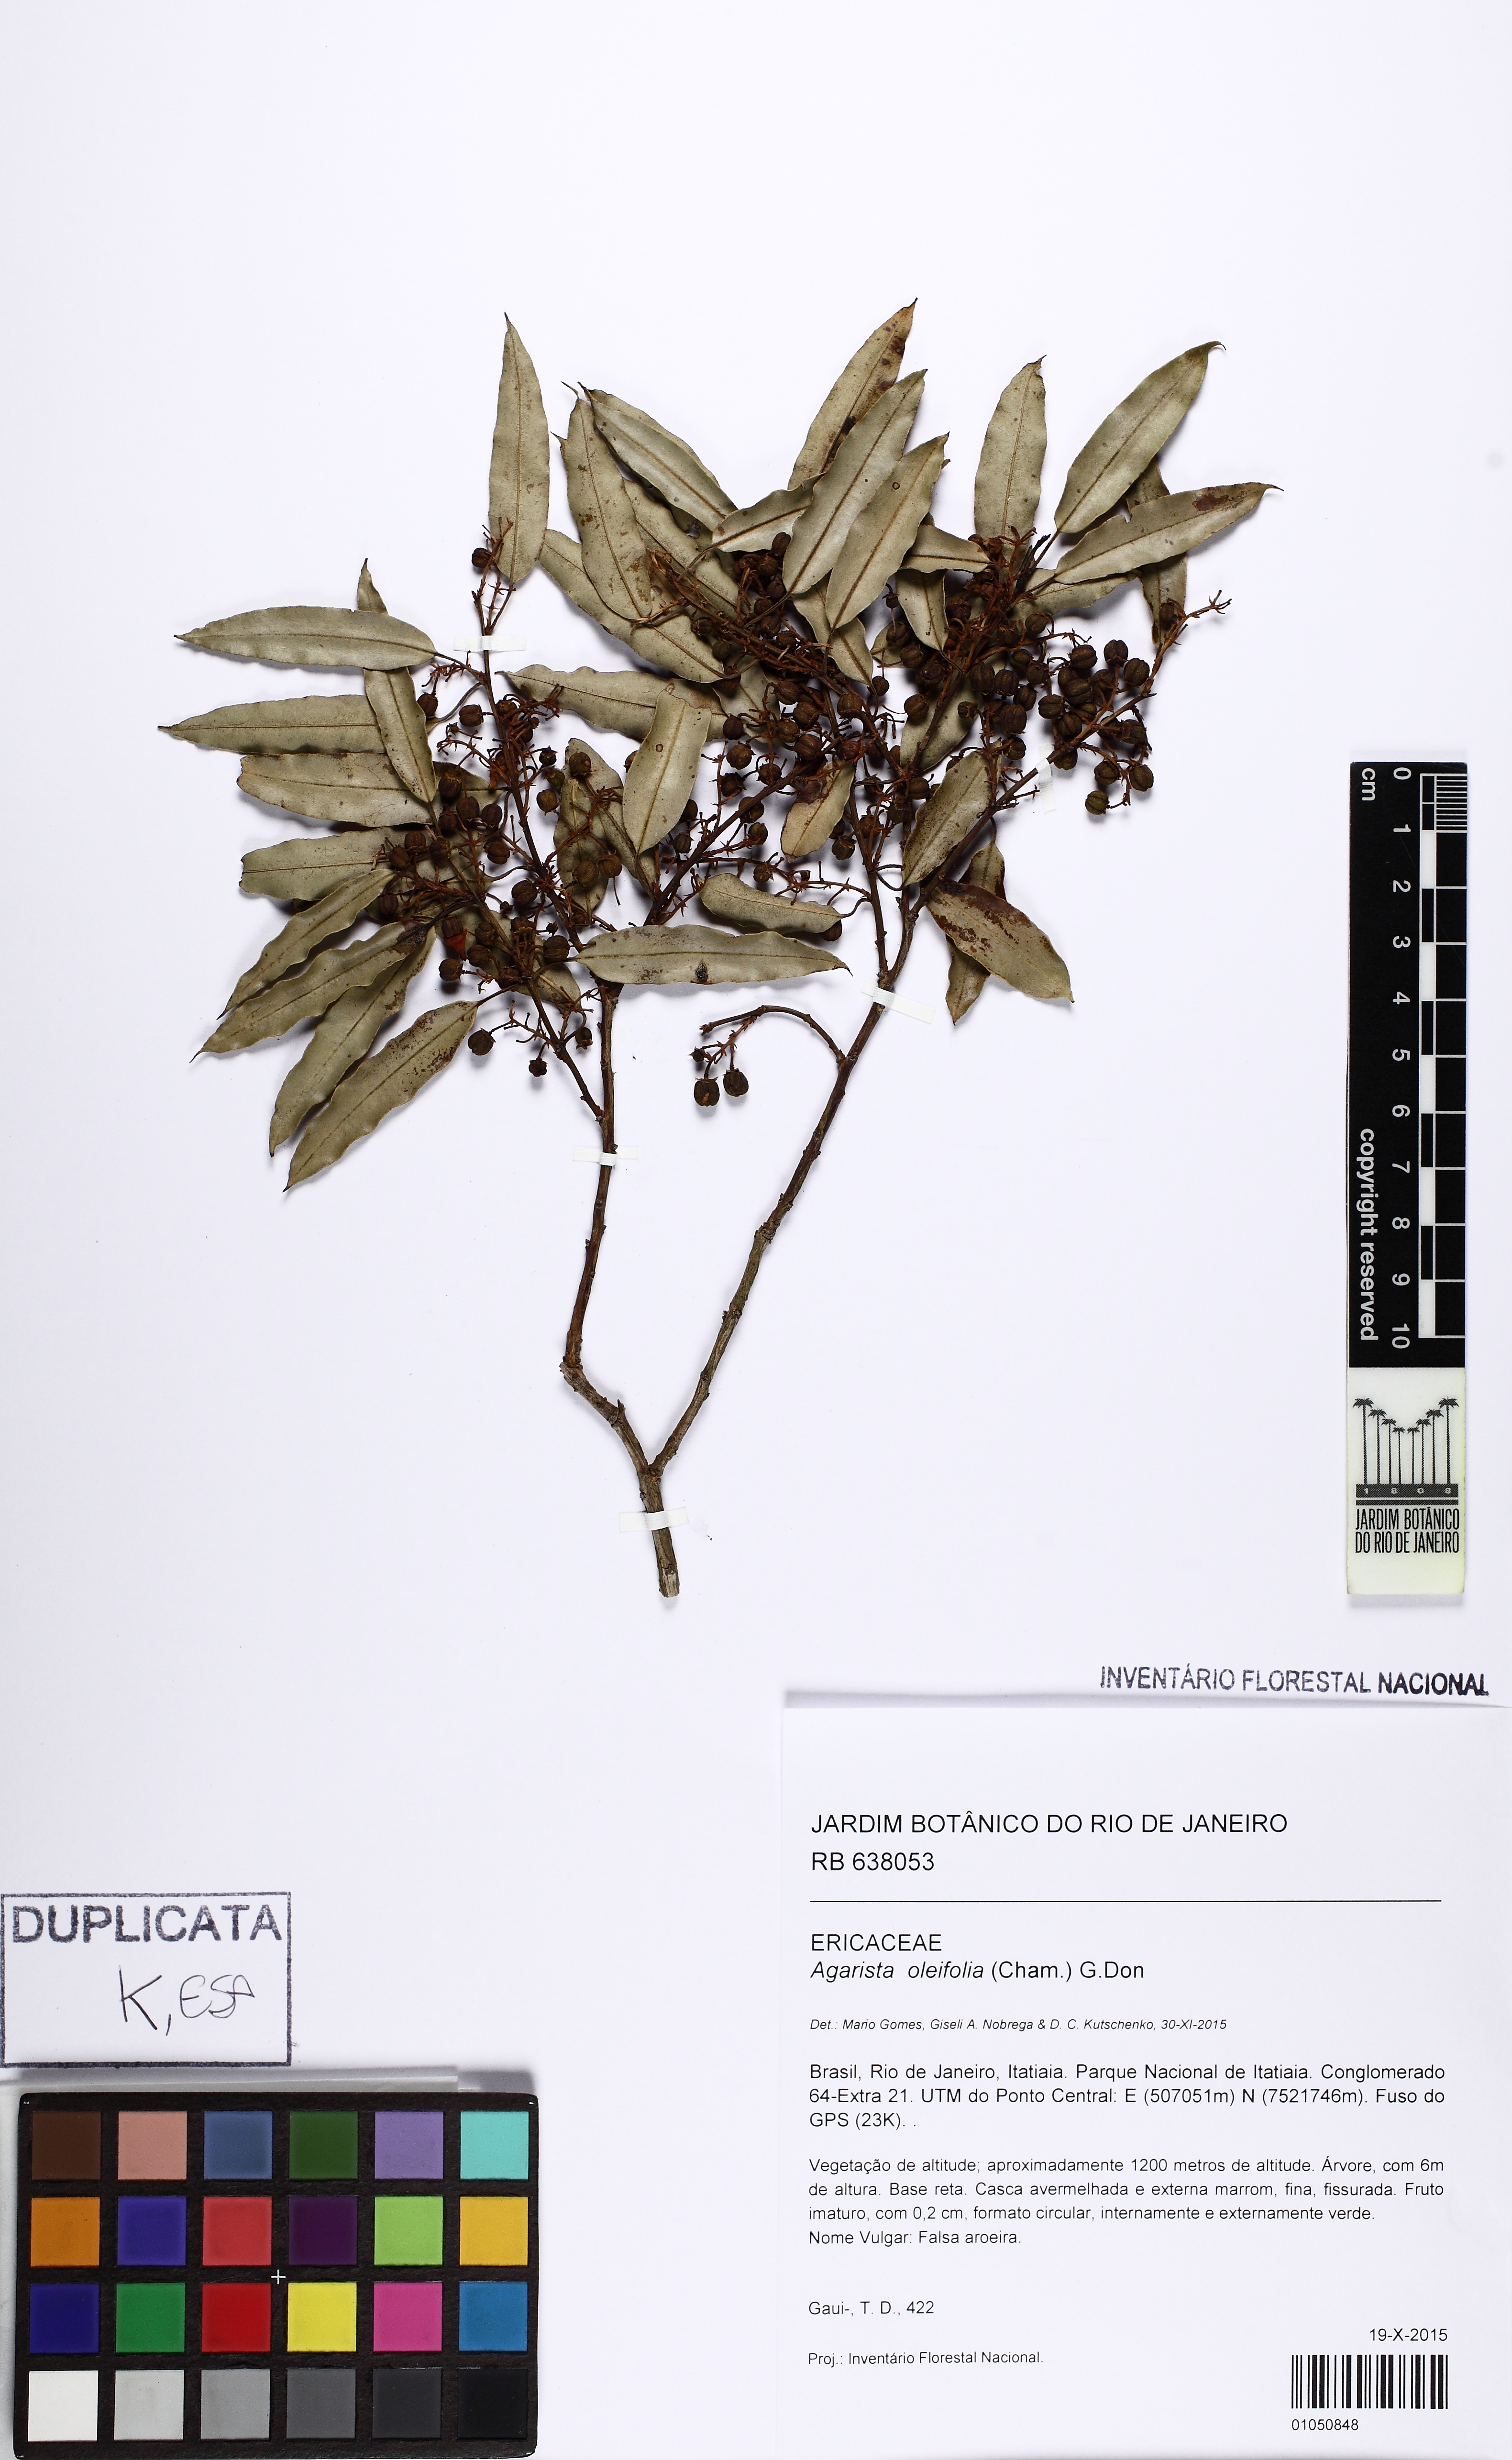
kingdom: Plantae
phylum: Tracheophyta
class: Magnoliopsida
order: Ericales
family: Ericaceae
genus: Agarista
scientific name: Agarista eucalyptoides
